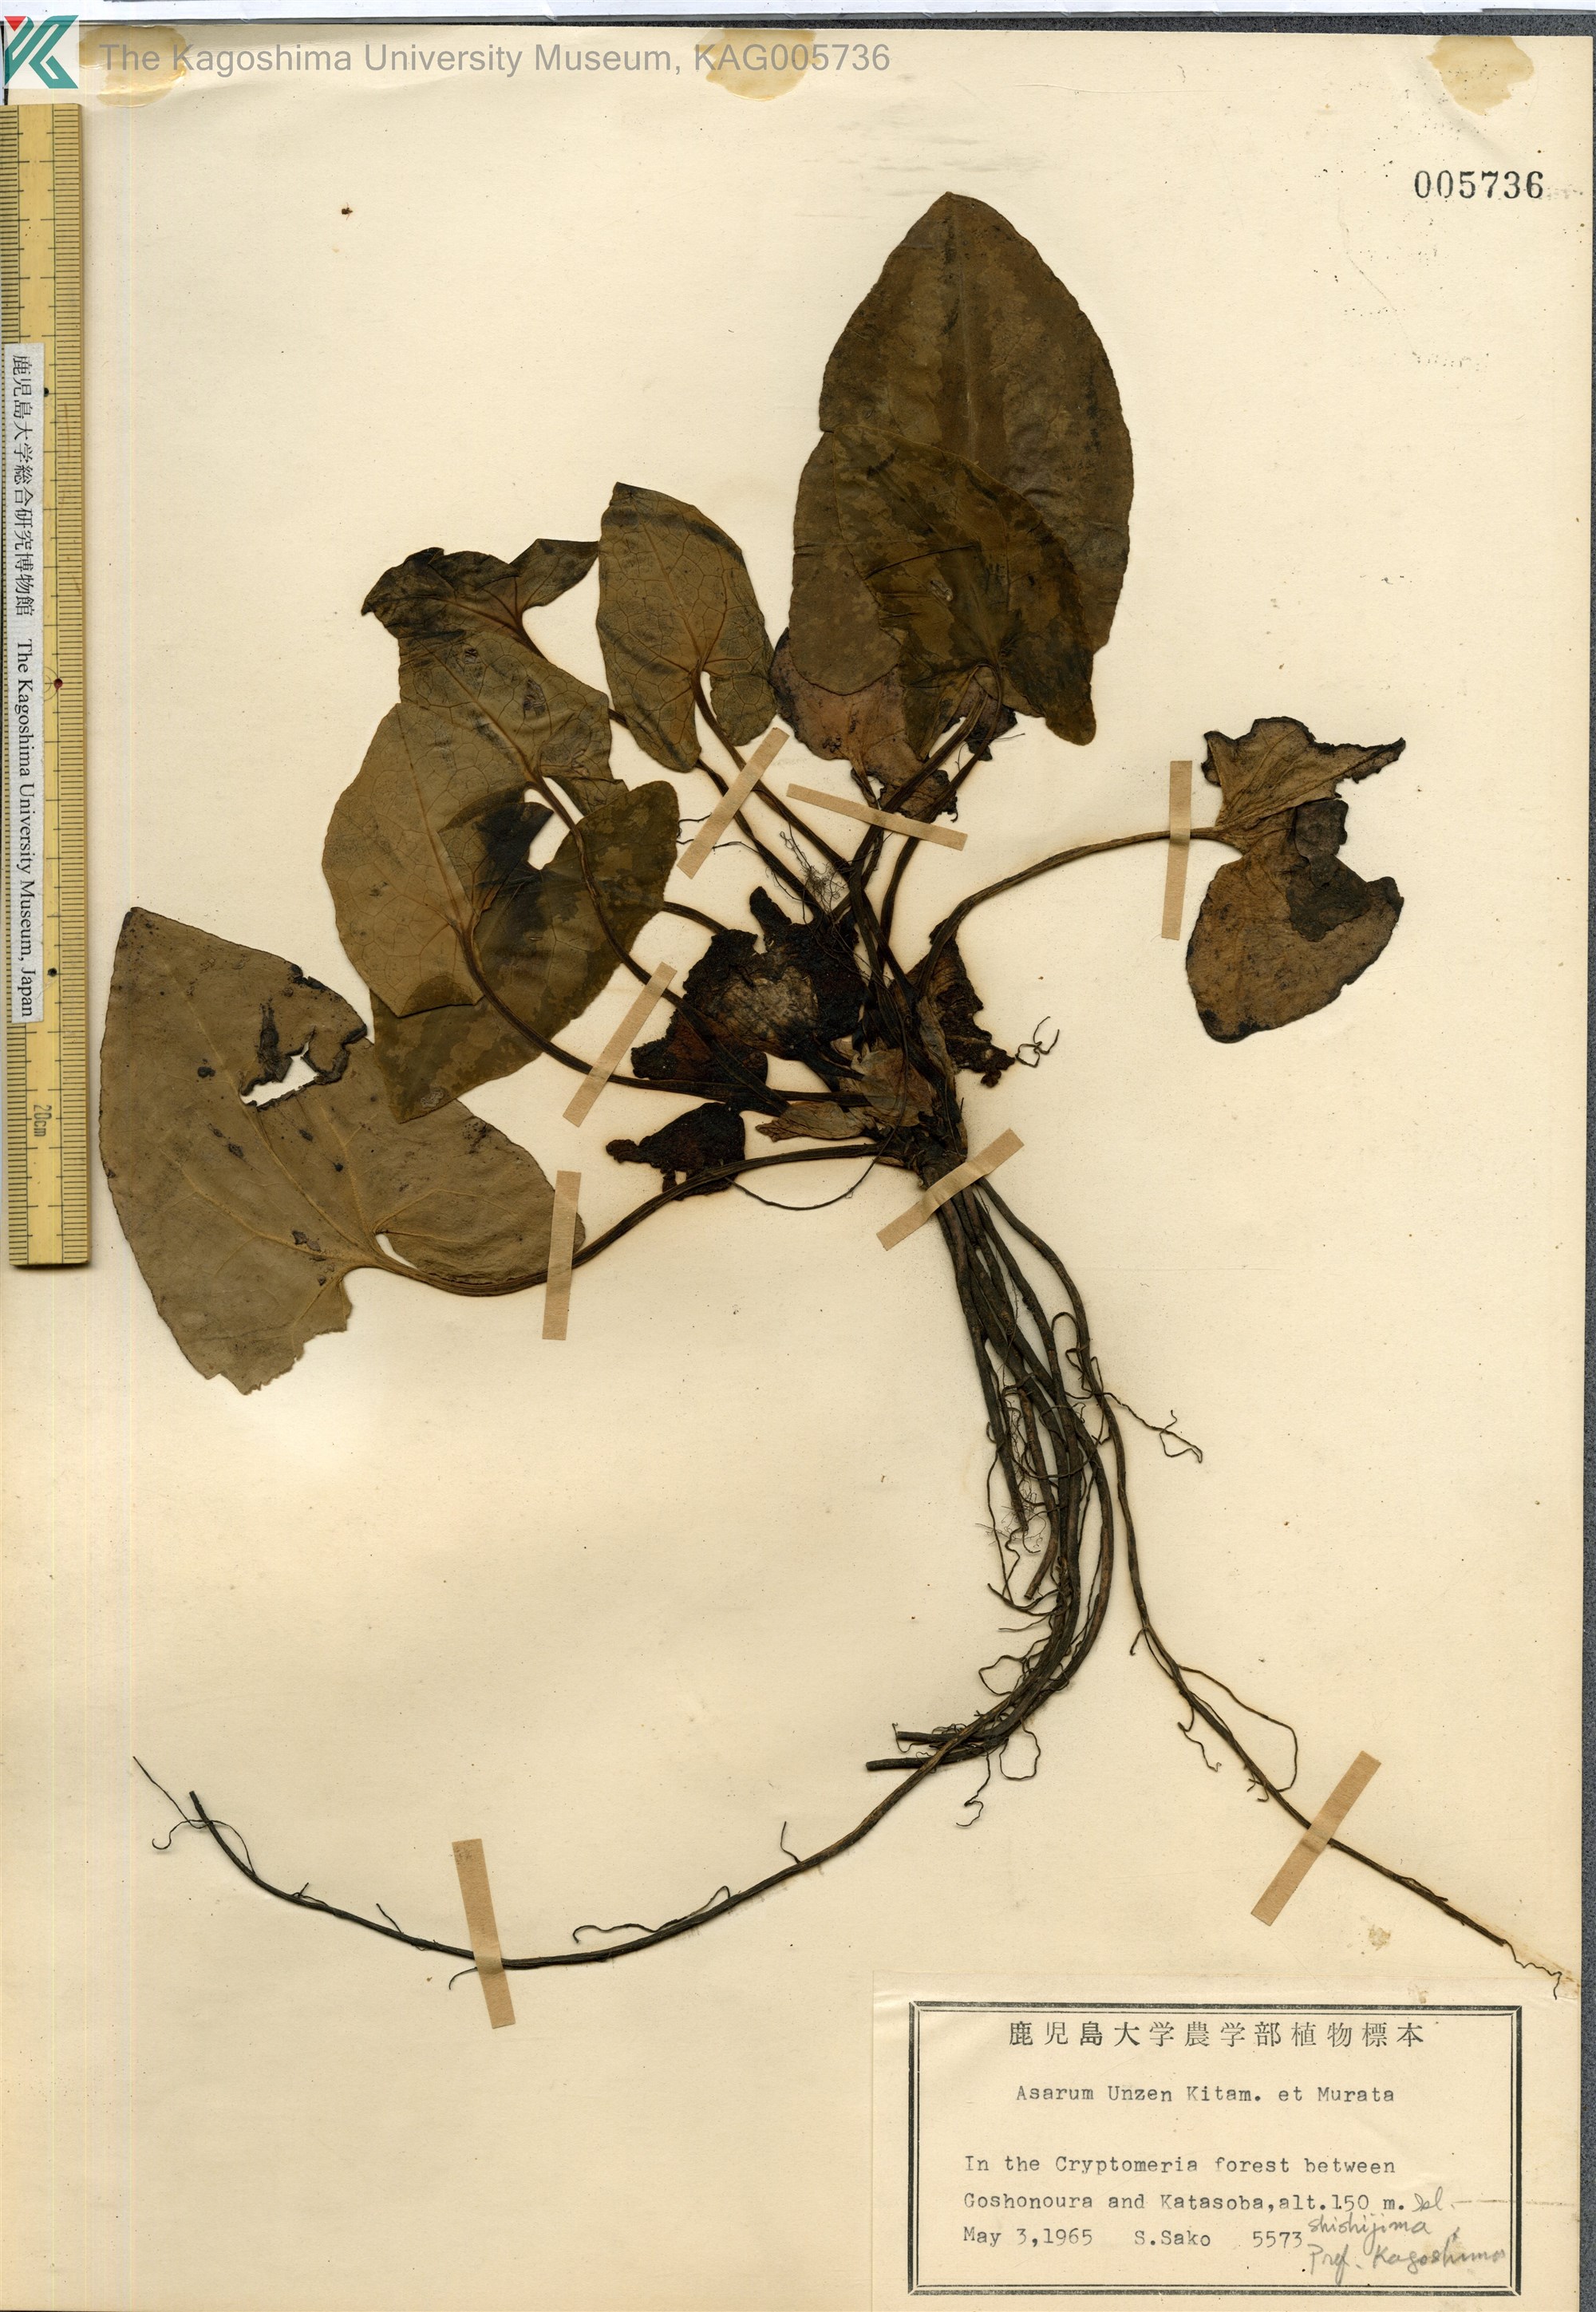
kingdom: Plantae
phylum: Tracheophyta
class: Magnoliopsida
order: Piperales
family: Aristolochiaceae
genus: Asarum
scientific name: Asarum unzen
